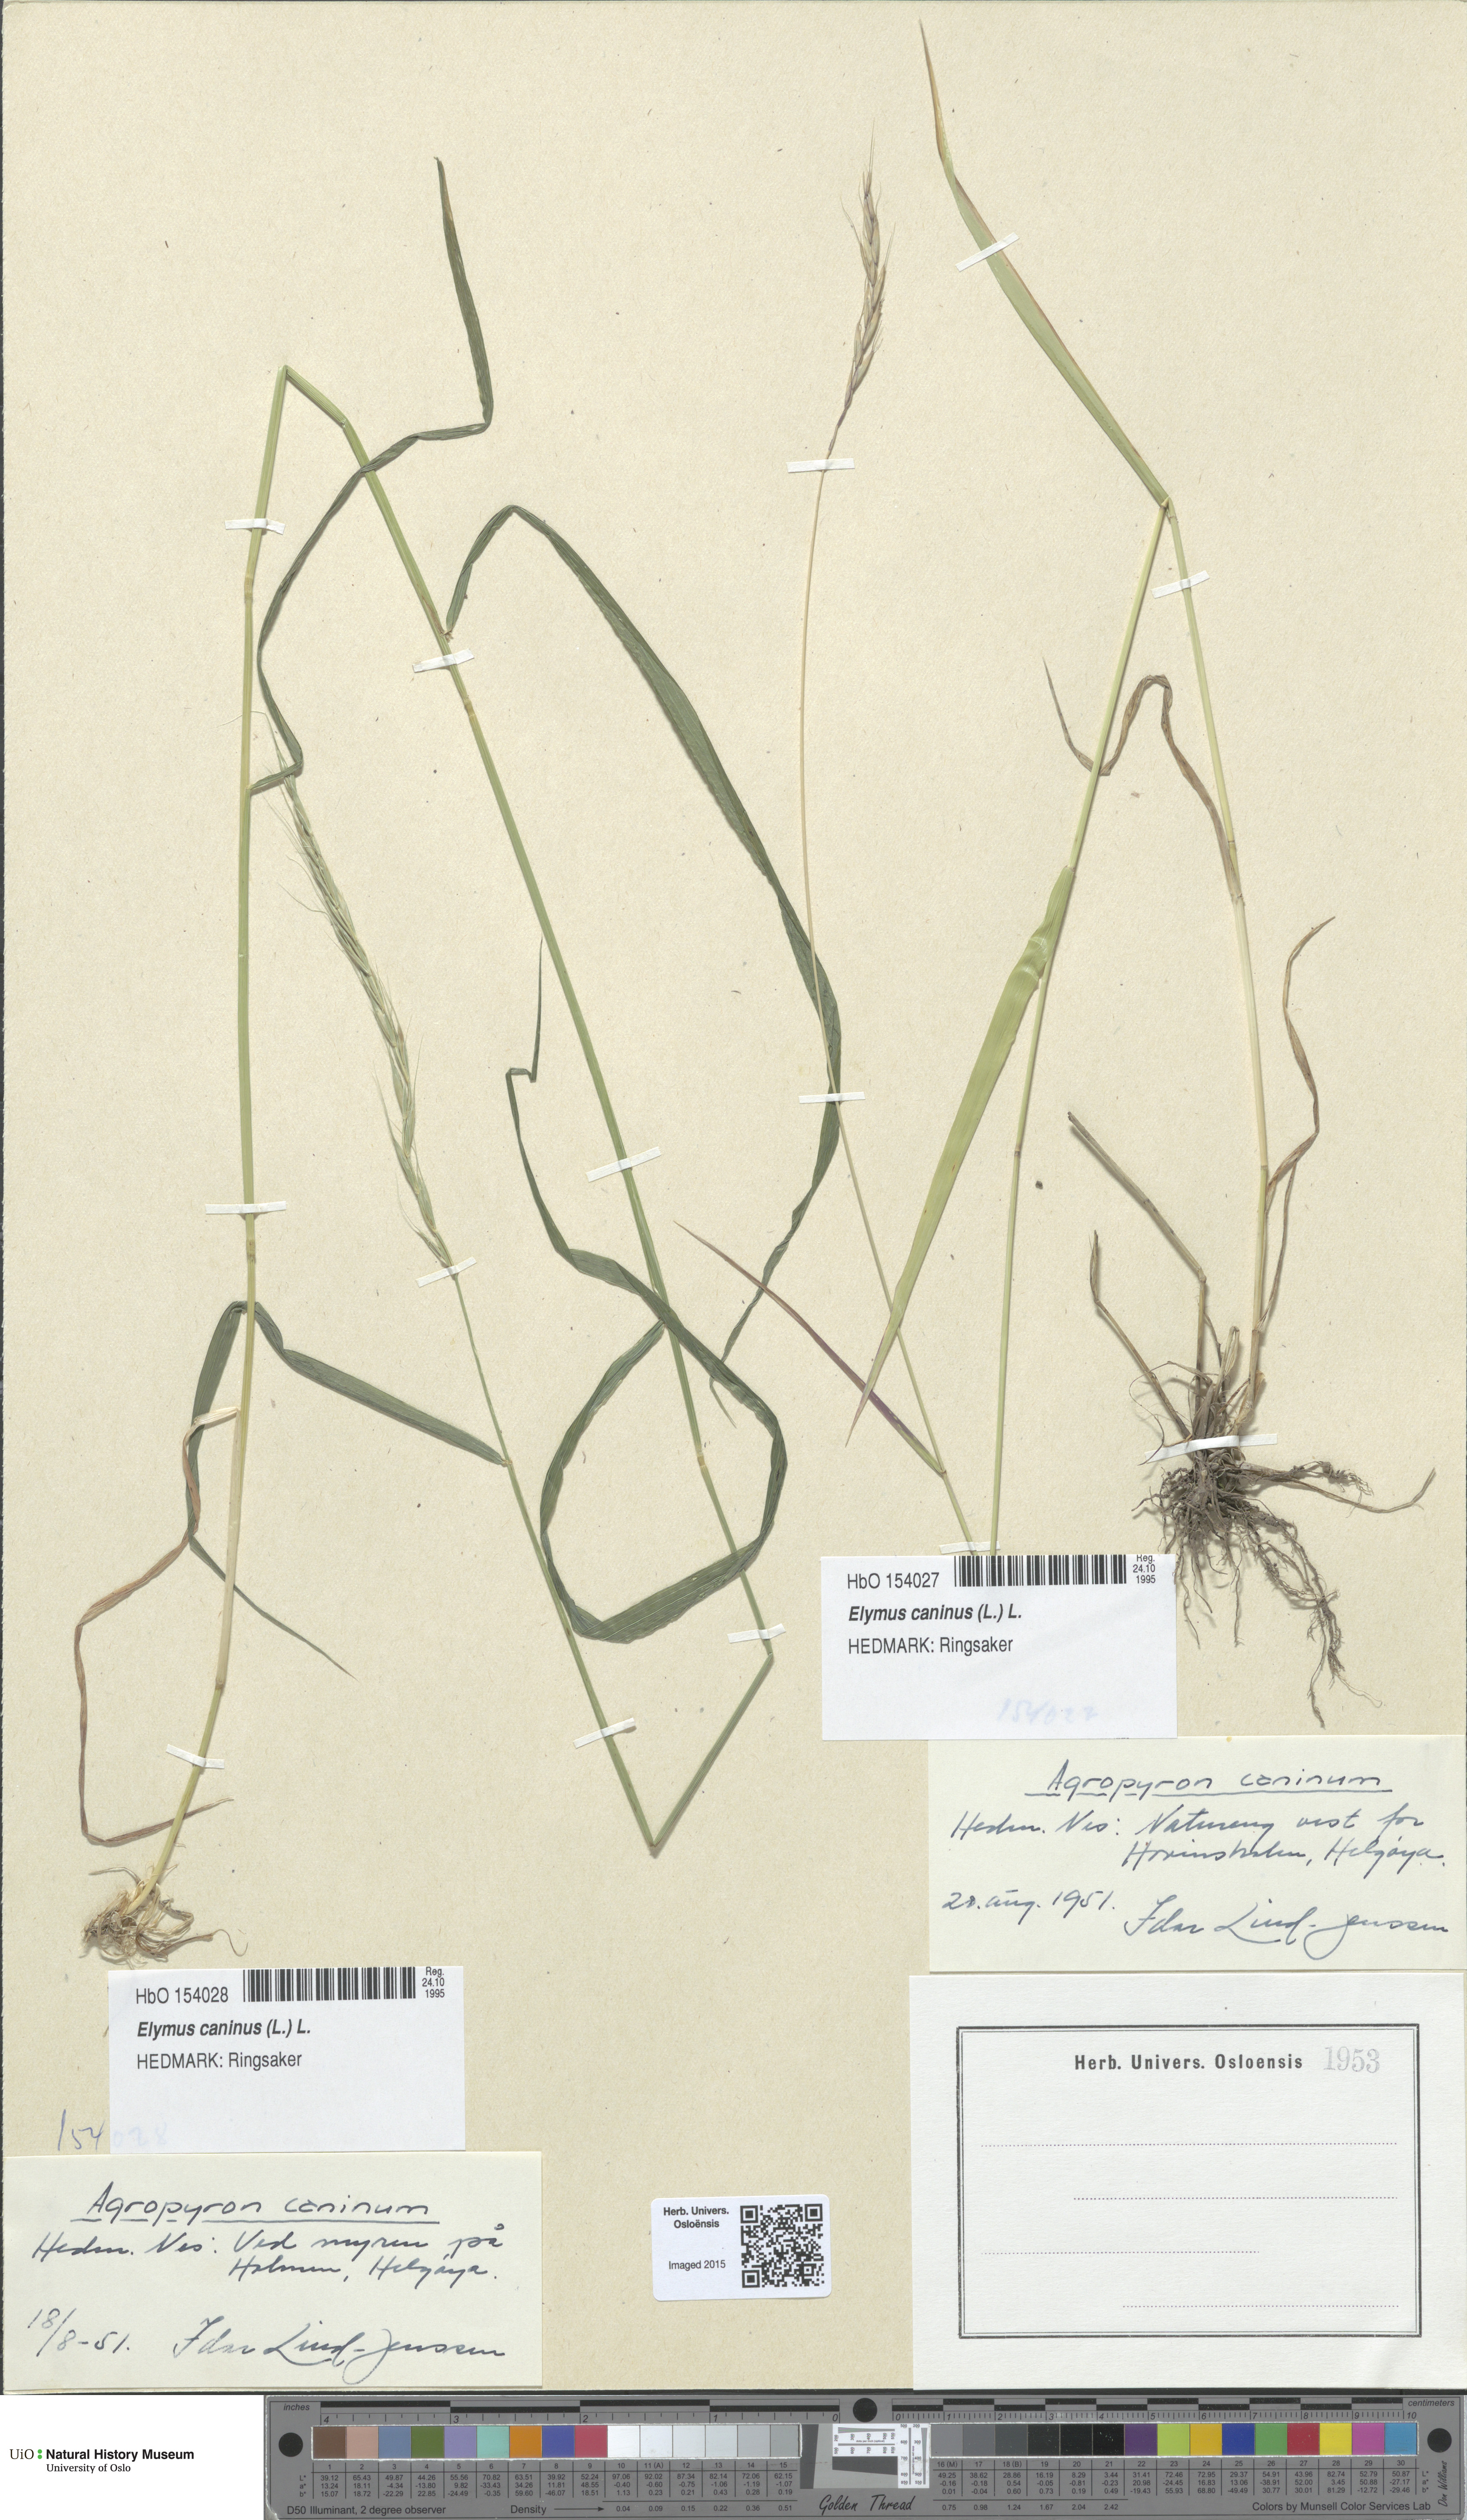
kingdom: Plantae
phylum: Tracheophyta
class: Liliopsida
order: Poales
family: Poaceae
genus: Elymus
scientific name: Elymus caninus
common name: Bearded couch
